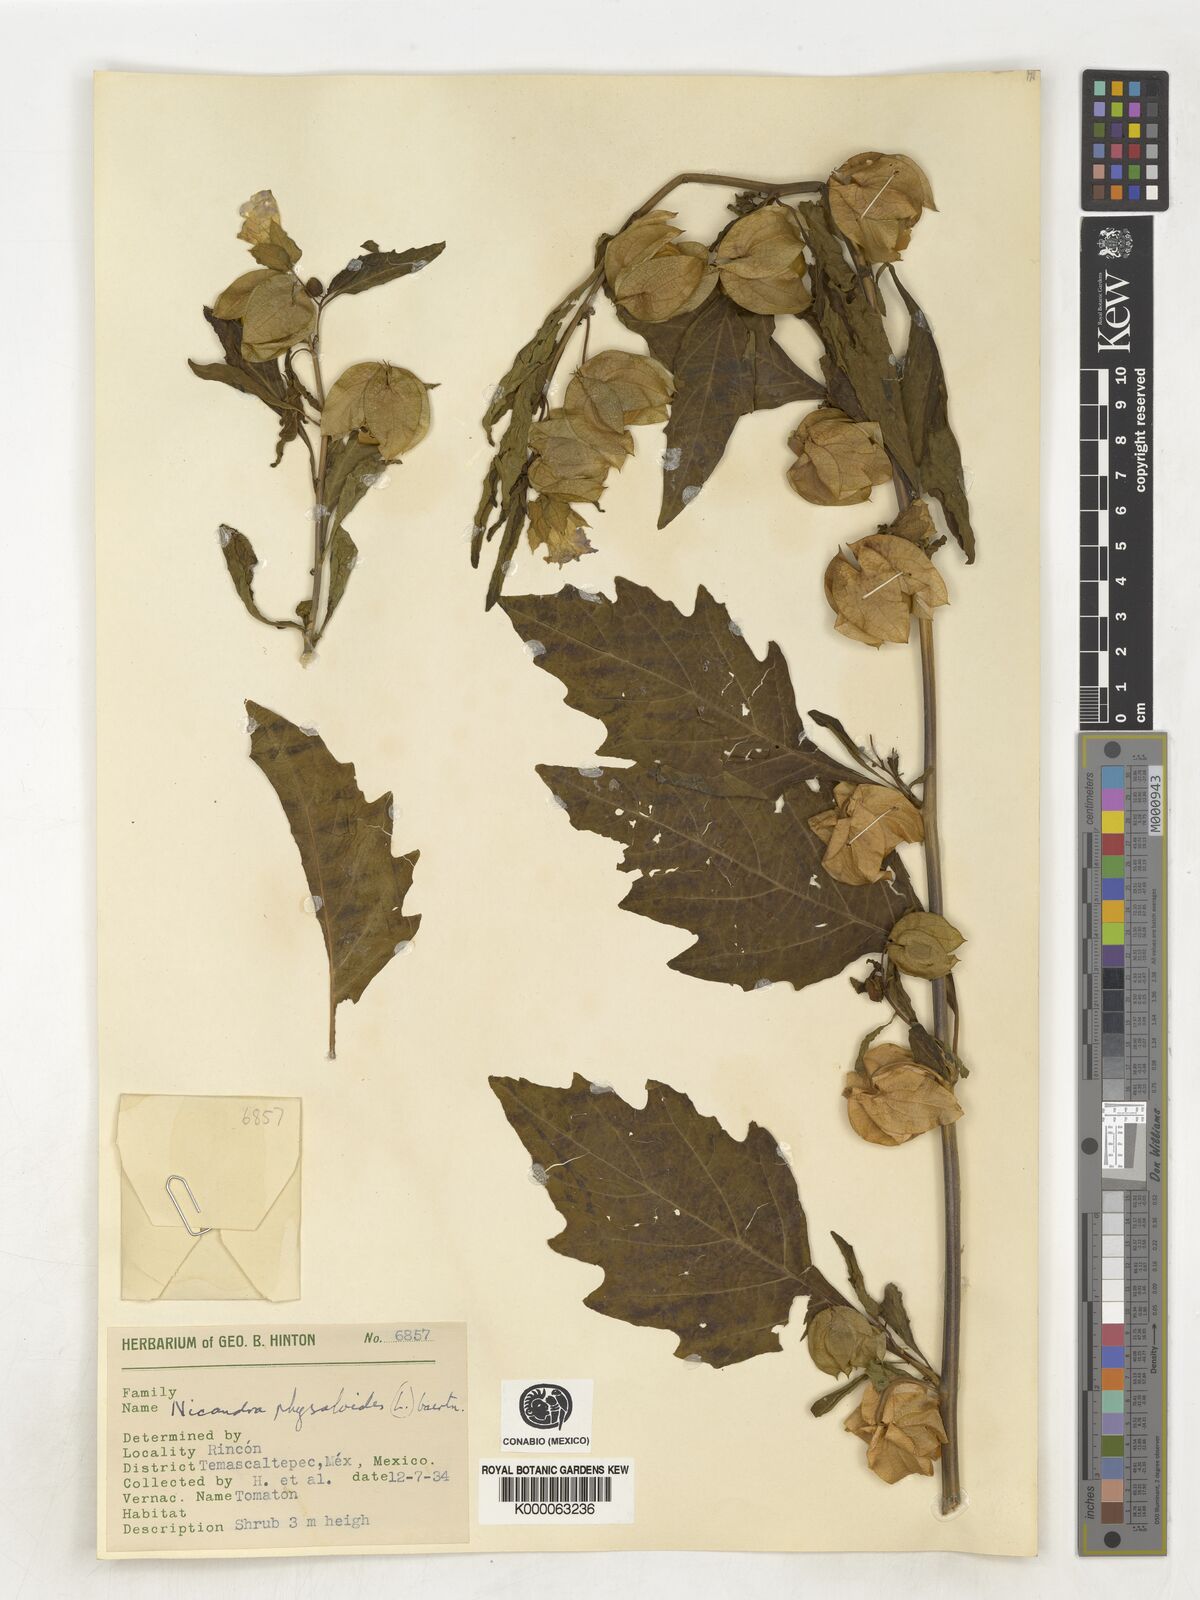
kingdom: Plantae
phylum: Tracheophyta
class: Magnoliopsida
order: Solanales
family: Solanaceae
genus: Nicandra
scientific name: Nicandra
